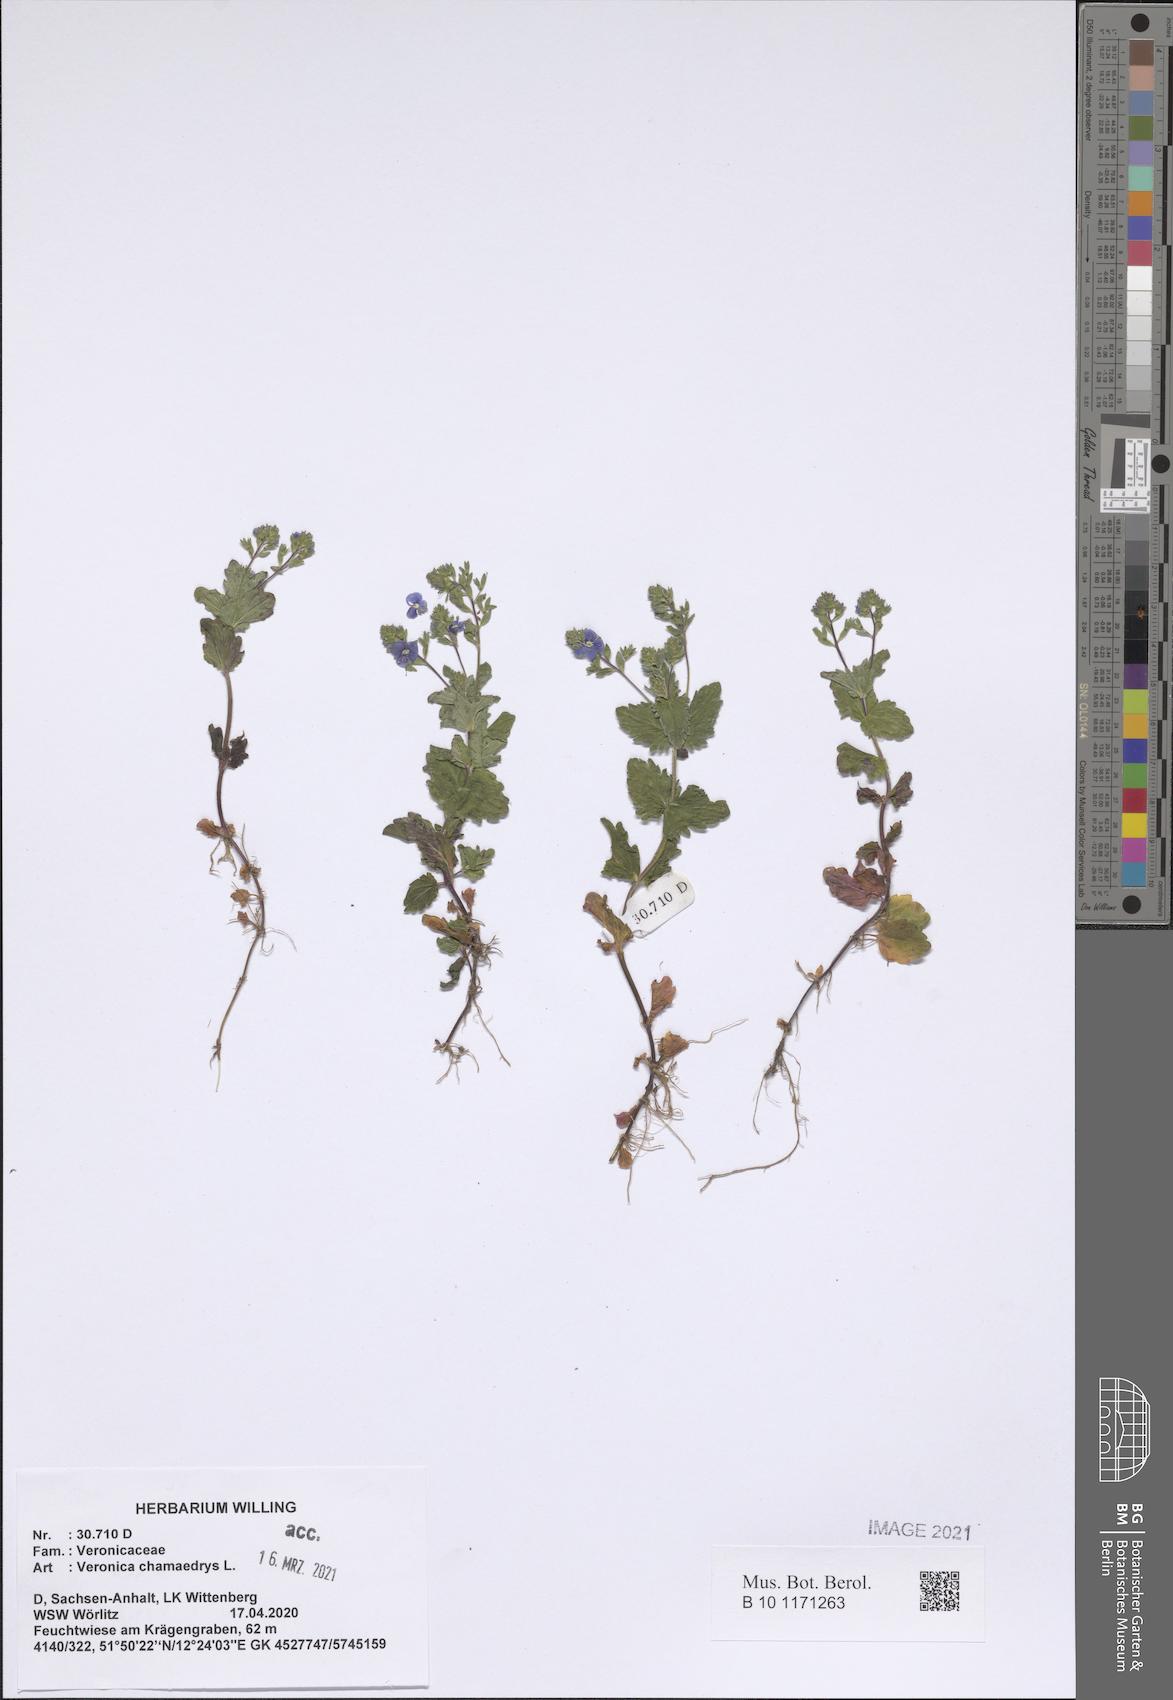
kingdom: Plantae
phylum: Tracheophyta
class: Magnoliopsida
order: Lamiales
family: Plantaginaceae
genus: Veronica
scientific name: Veronica chamaedrys
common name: Germander speedwell
